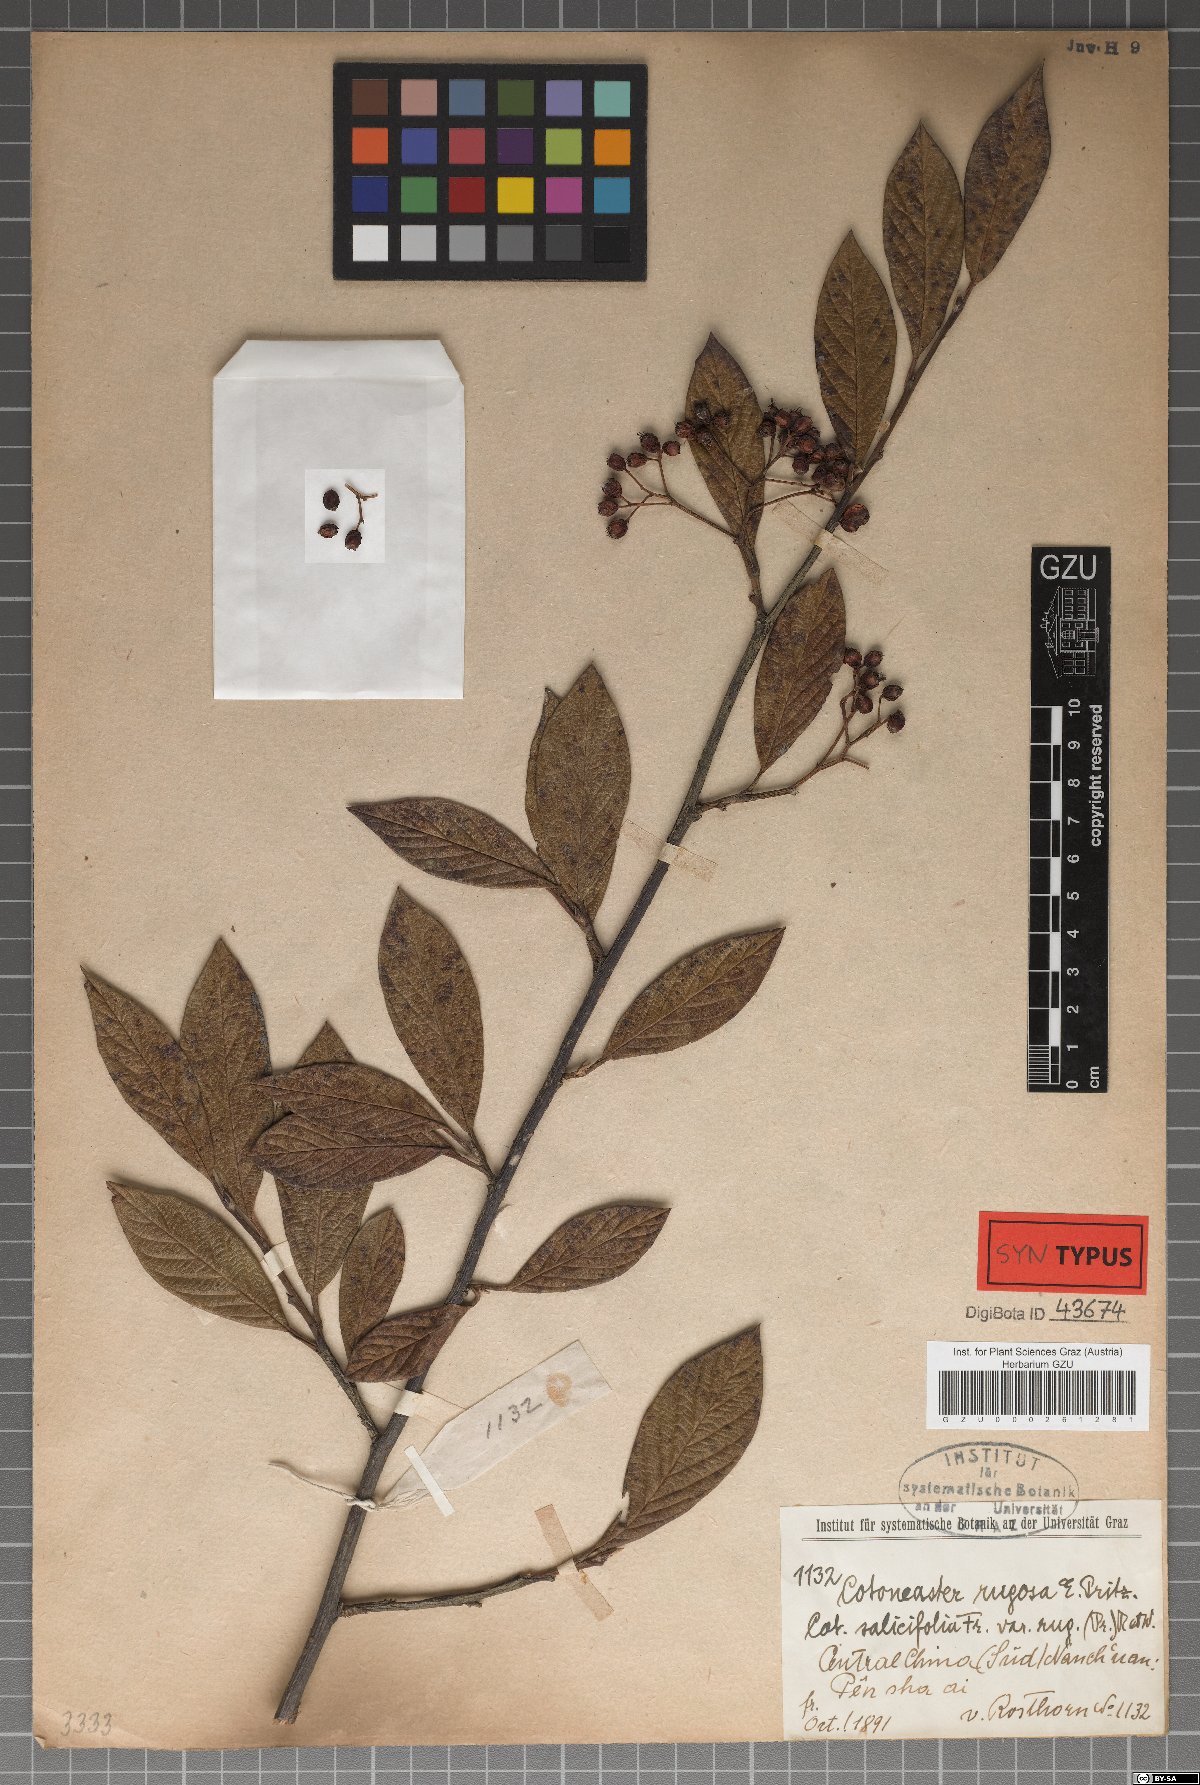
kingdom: Plantae
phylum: Tracheophyta
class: Magnoliopsida
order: Rosales
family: Rosaceae
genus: Cotoneaster
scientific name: Cotoneaster salicifolius
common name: Willow-leaved cotoneaster
